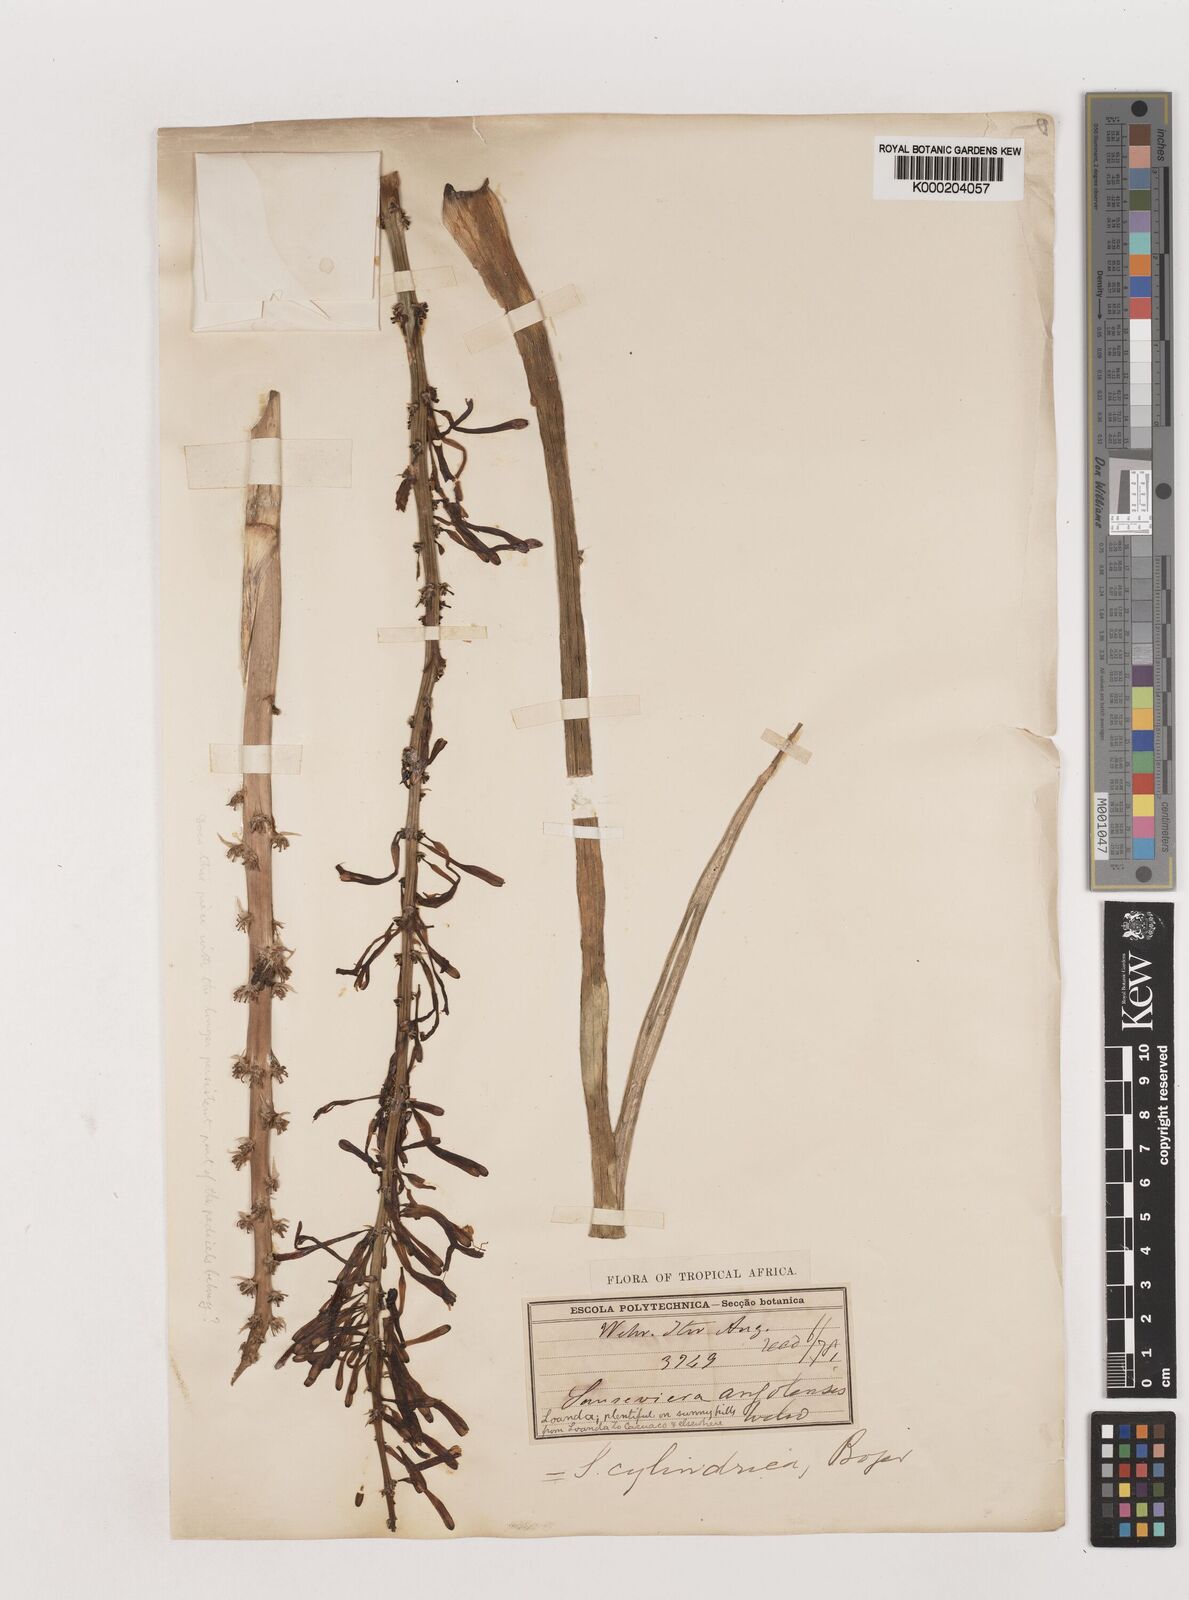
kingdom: Plantae
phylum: Tracheophyta
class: Liliopsida
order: Asparagales
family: Asparagaceae
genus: Dracaena
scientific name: Dracaena angolensis
